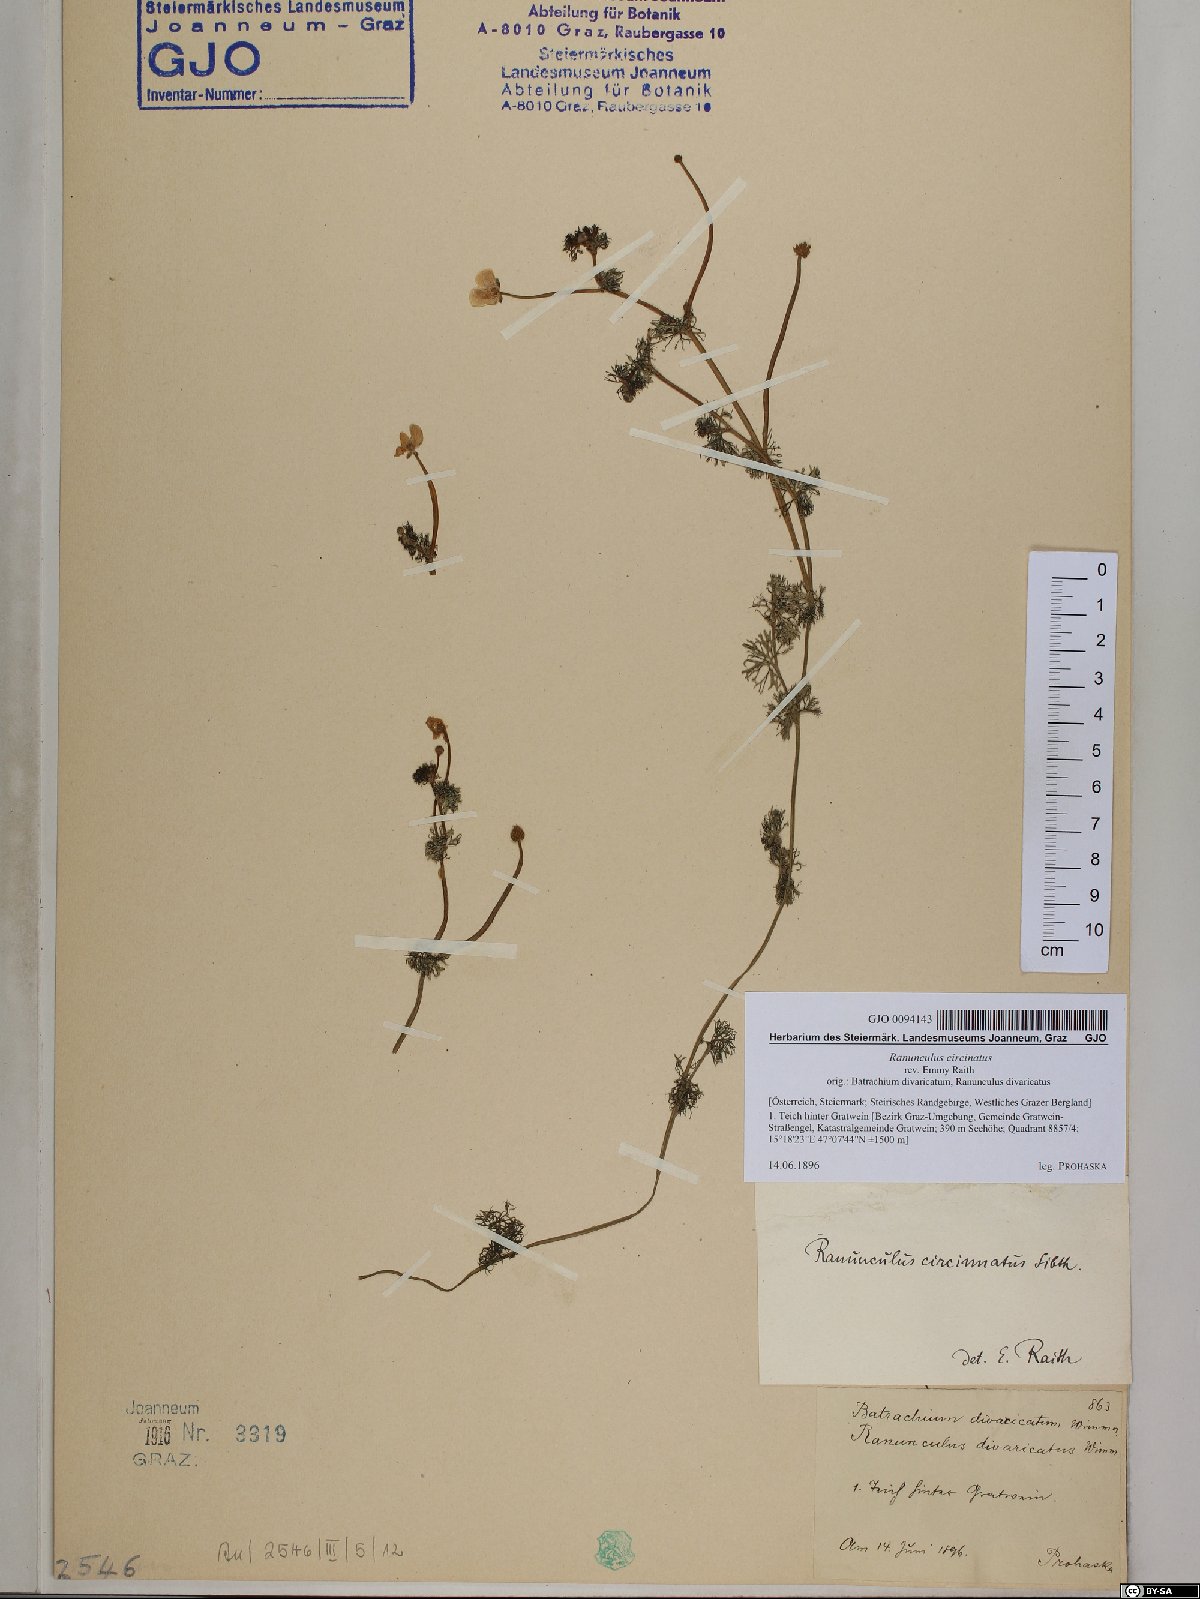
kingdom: Plantae
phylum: Tracheophyta
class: Magnoliopsida
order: Ranunculales
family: Ranunculaceae
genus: Ranunculus
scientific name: Ranunculus circinatus
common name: Fan-leaved water-crowfoot
